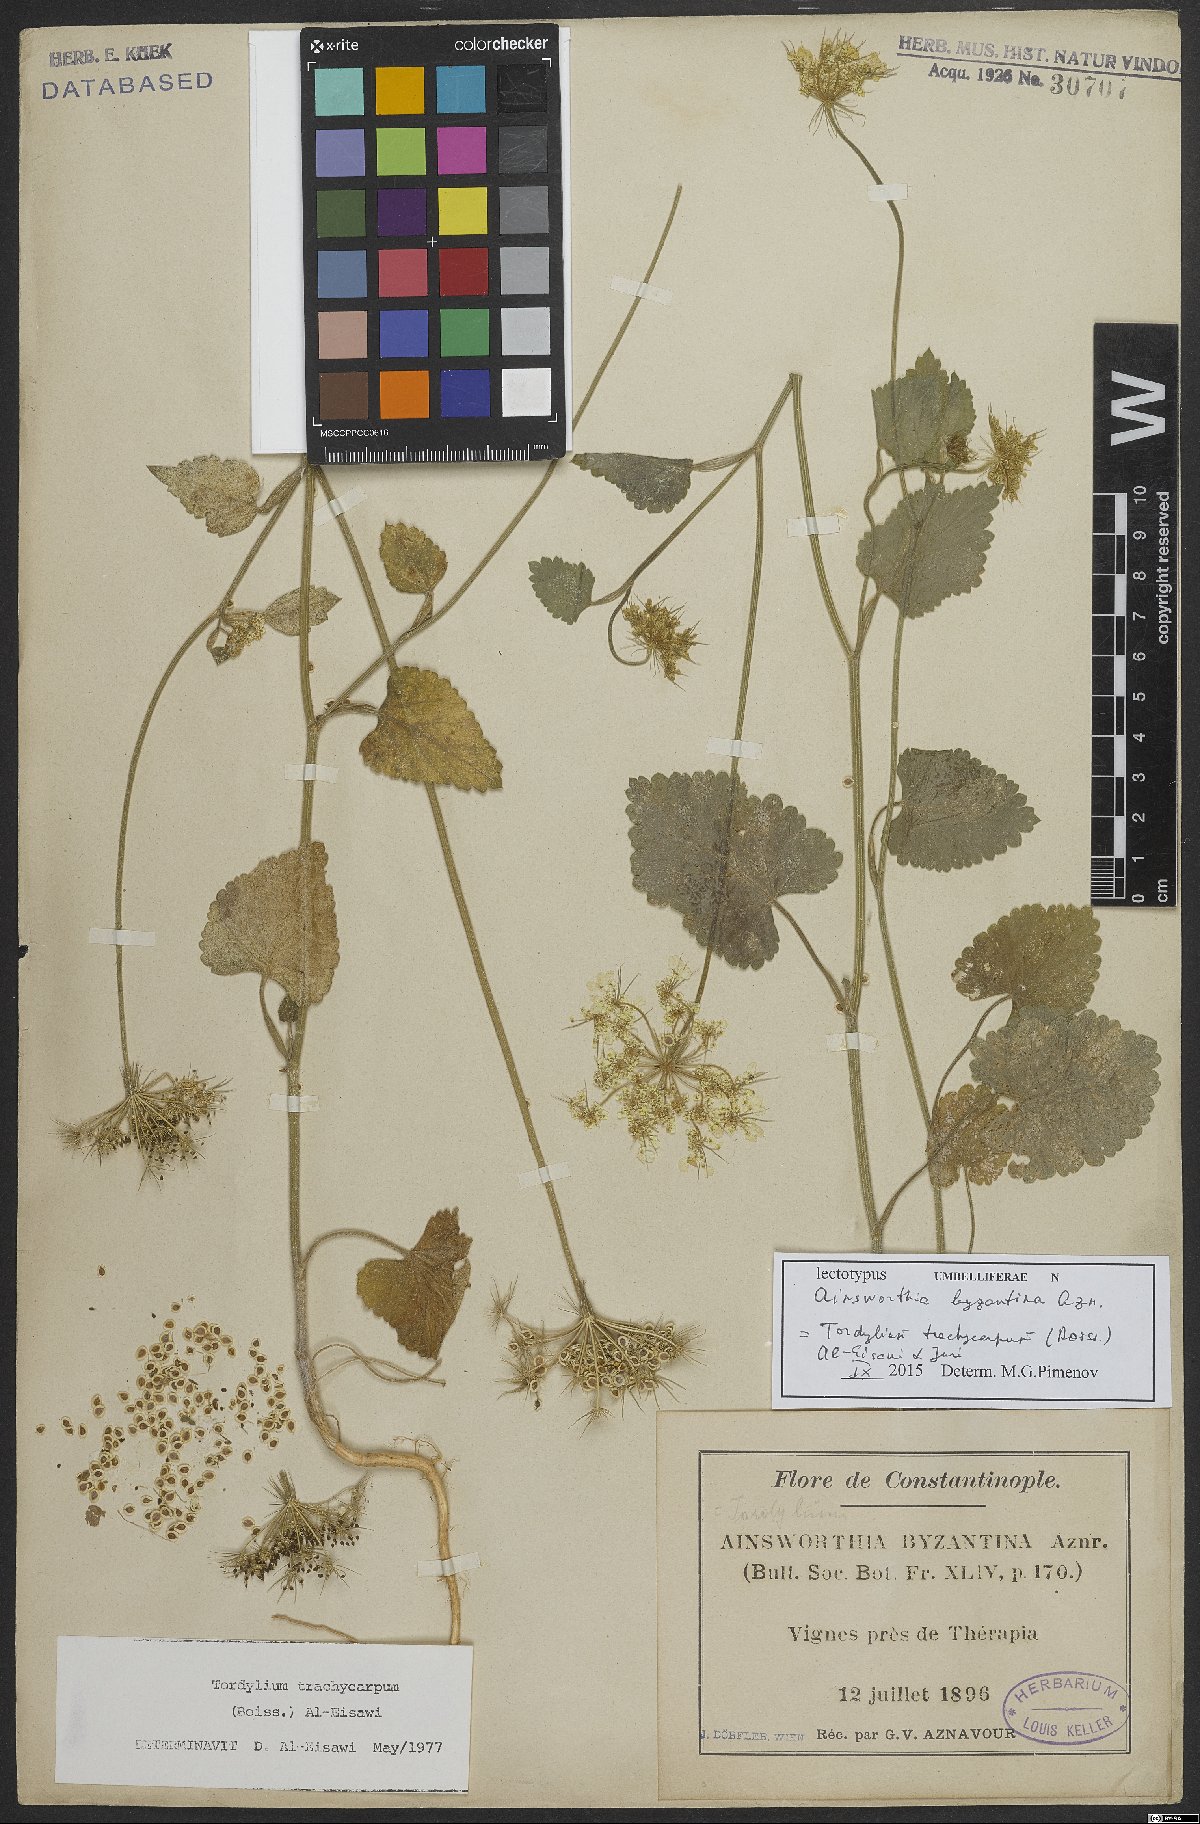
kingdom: Plantae
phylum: Tracheophyta
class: Magnoliopsida
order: Apiales
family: Apiaceae
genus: Ainsworthia
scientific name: Ainsworthia trachycarpa
